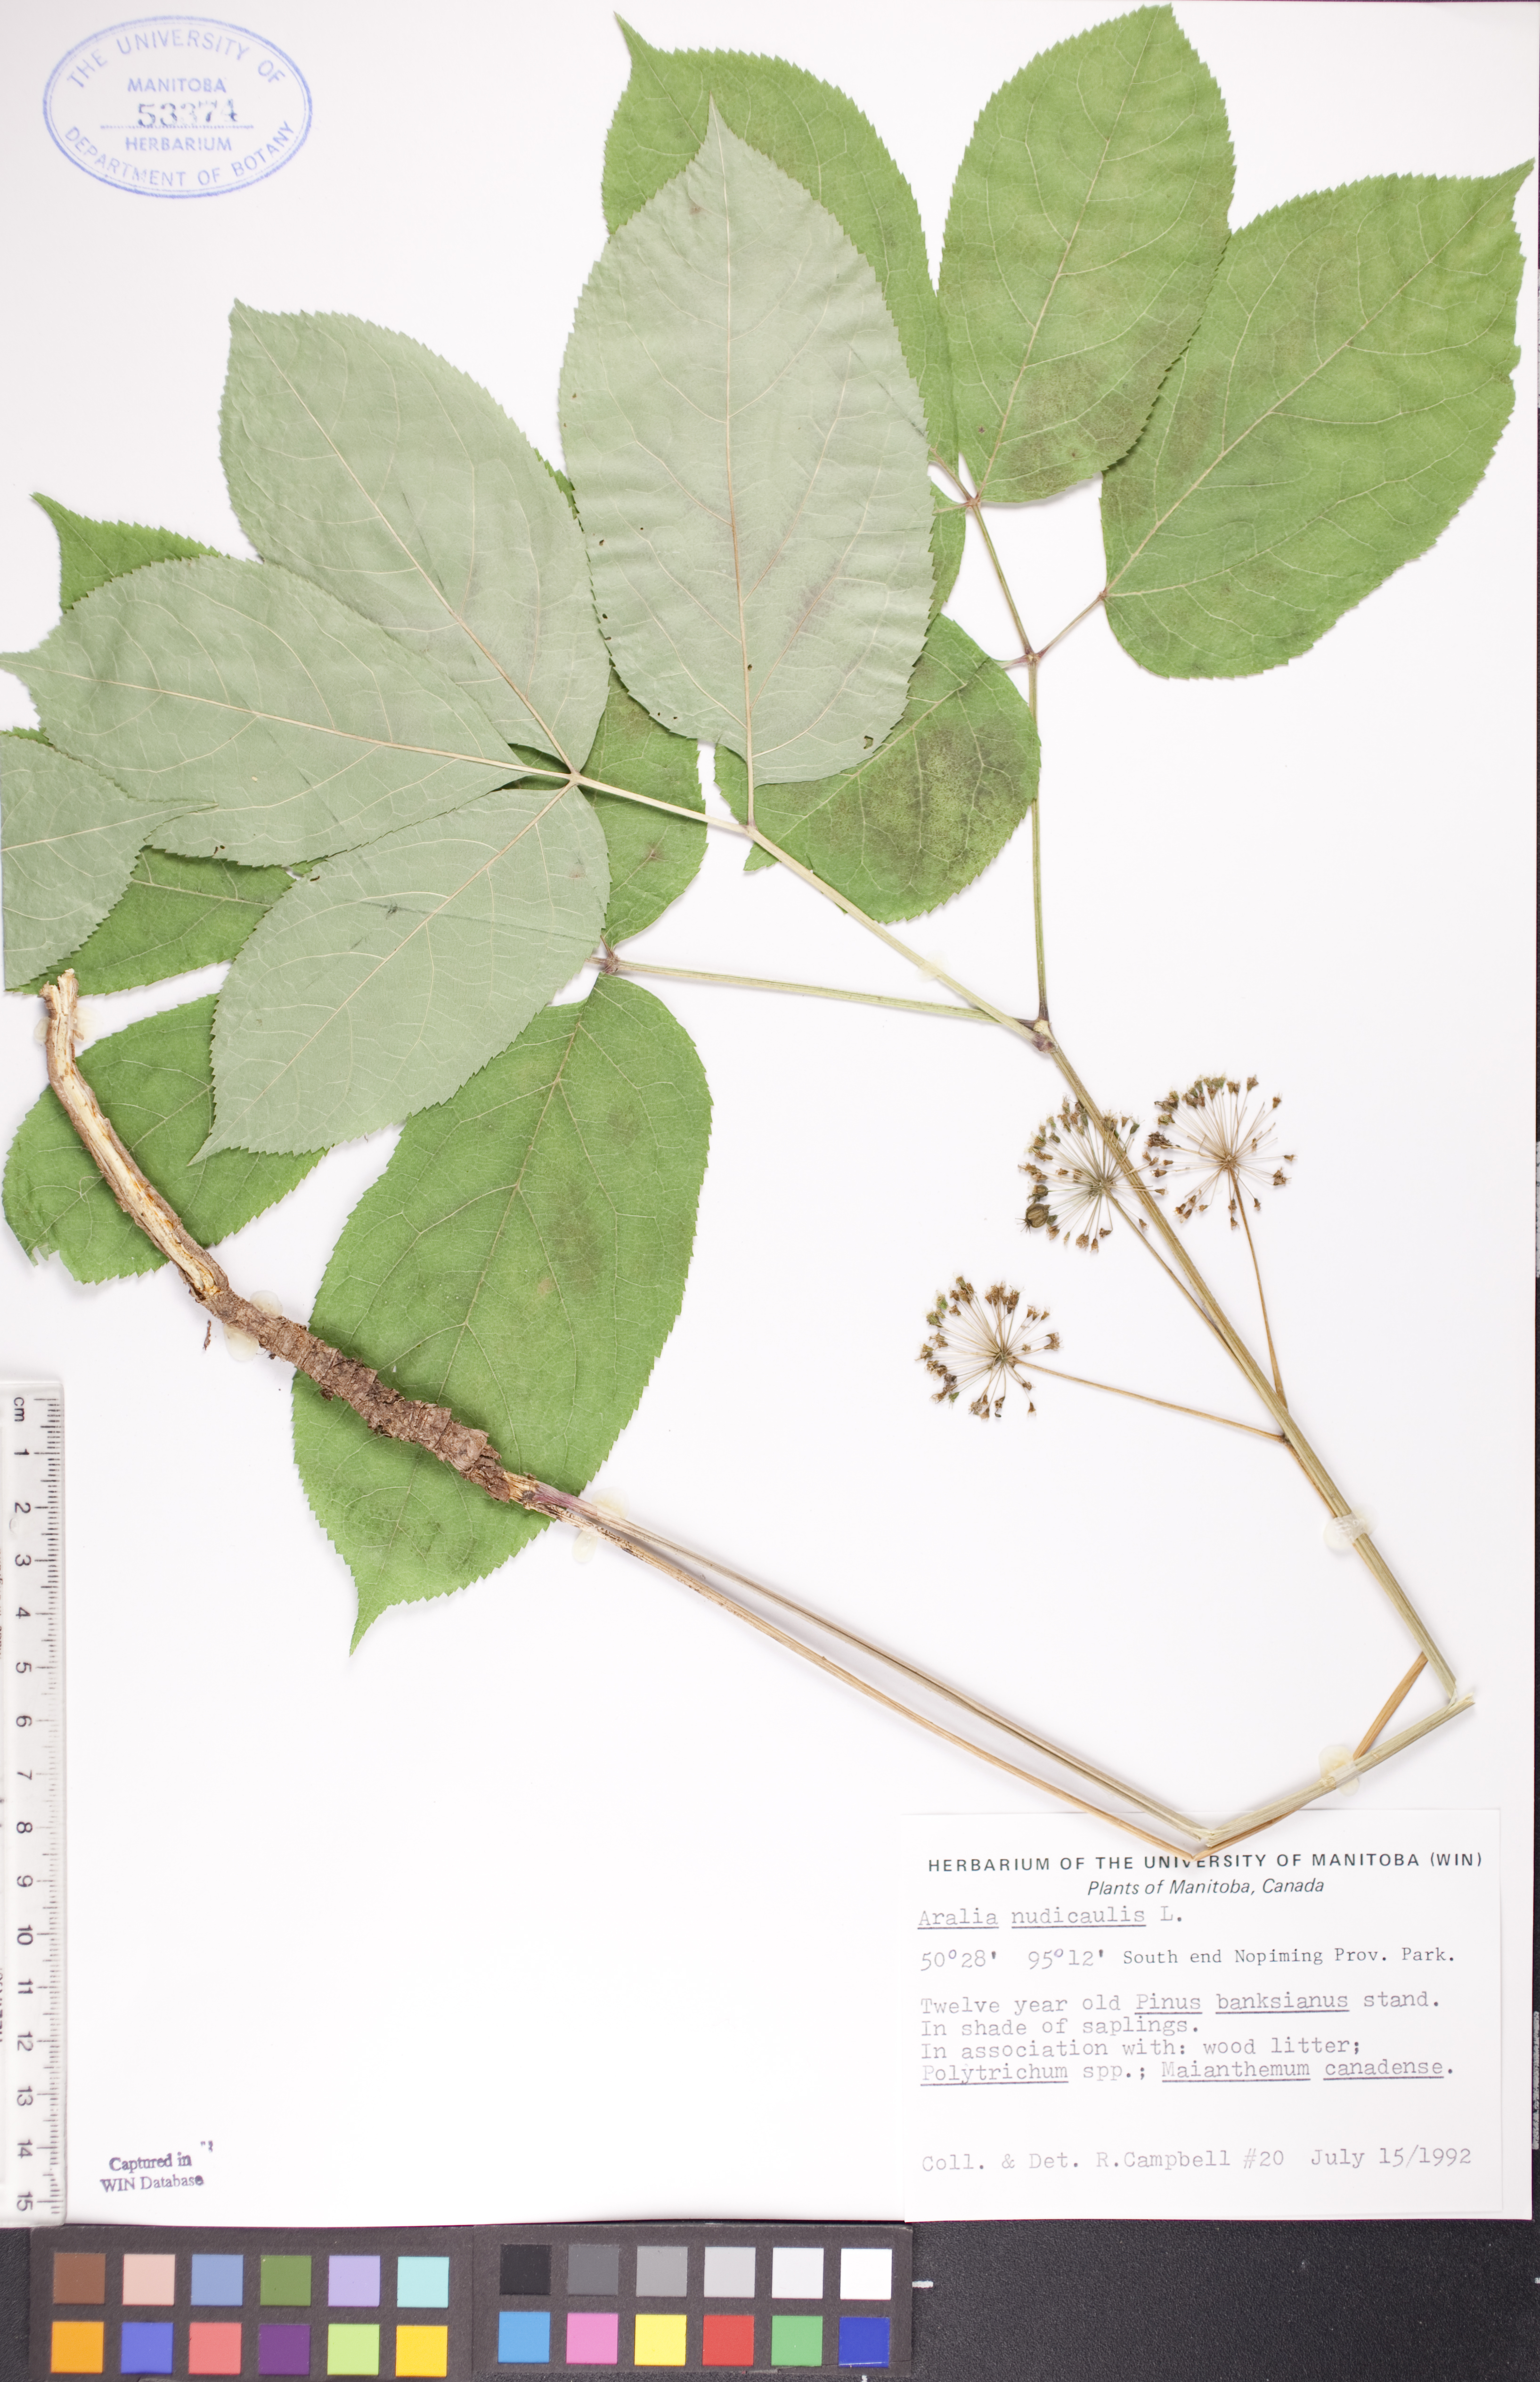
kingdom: Plantae
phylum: Tracheophyta
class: Magnoliopsida
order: Apiales
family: Araliaceae
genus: Aralia
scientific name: Aralia nudicaulis
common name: Wild sarsaparilla
